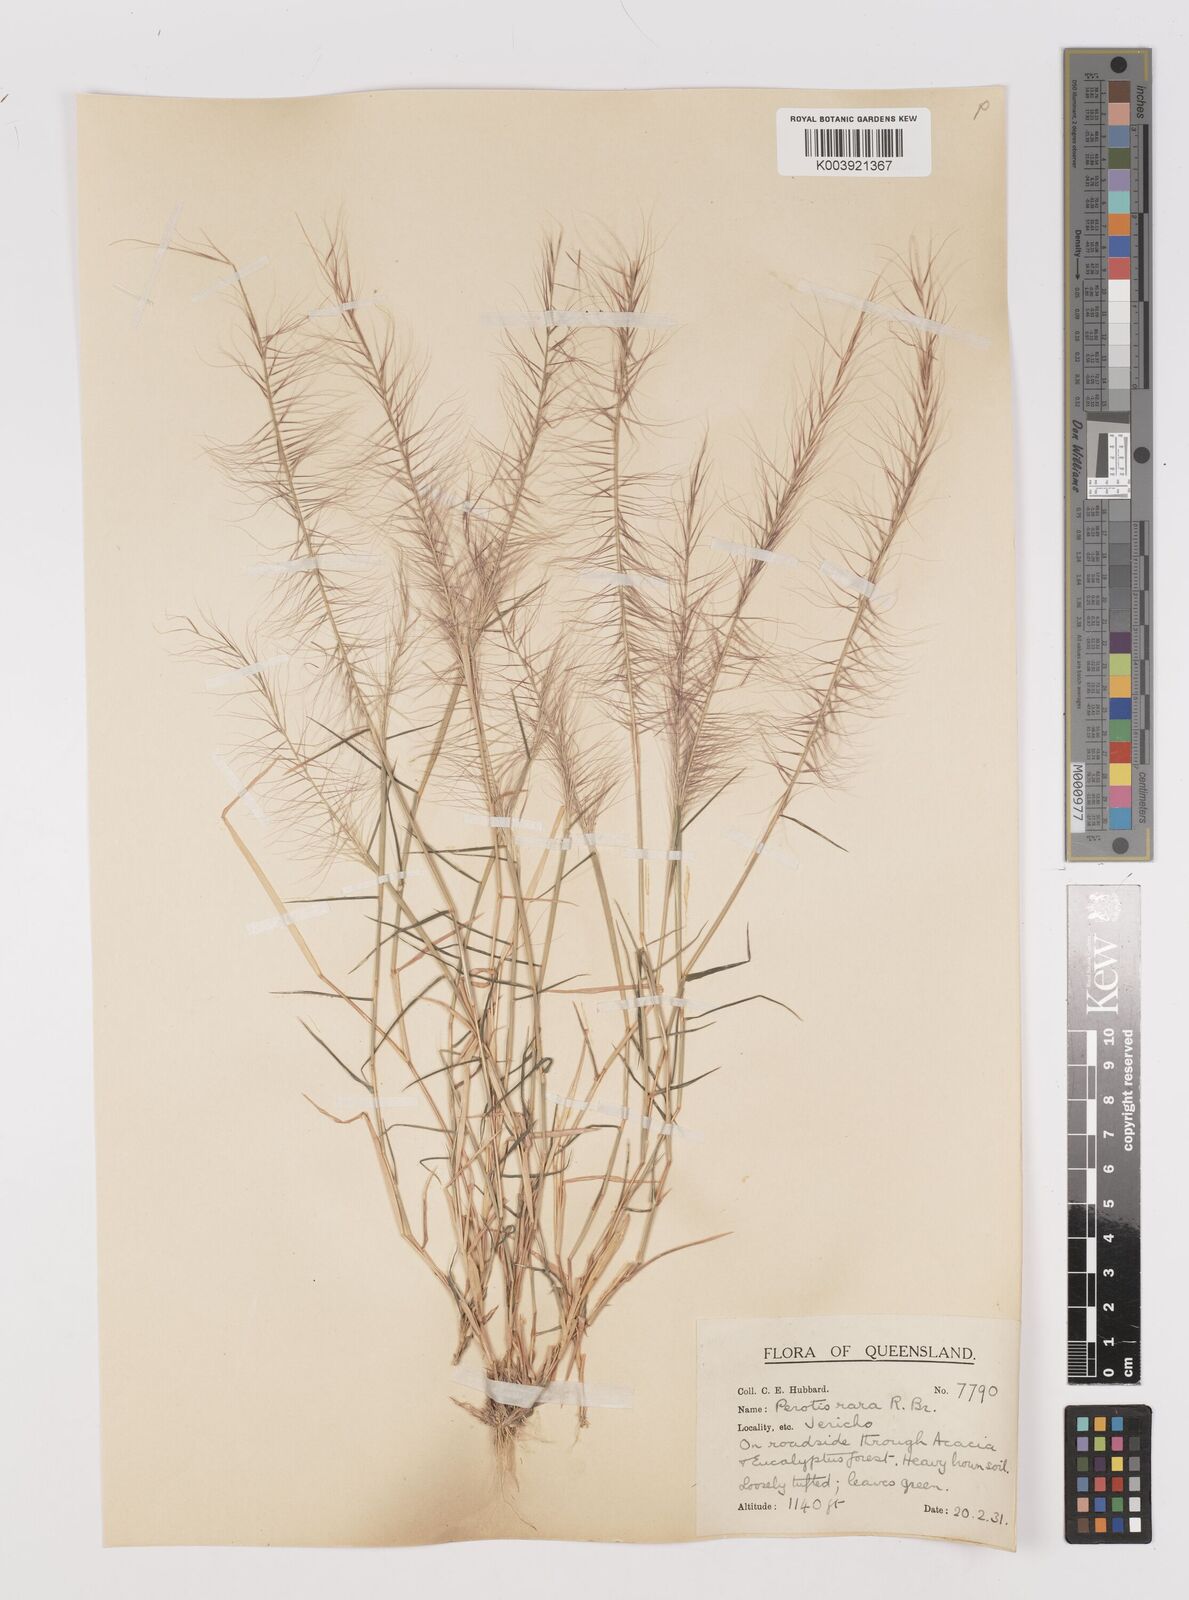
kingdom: Plantae
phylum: Tracheophyta
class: Liliopsida
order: Poales
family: Poaceae
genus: Perotis
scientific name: Perotis rara
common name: Comet grass
